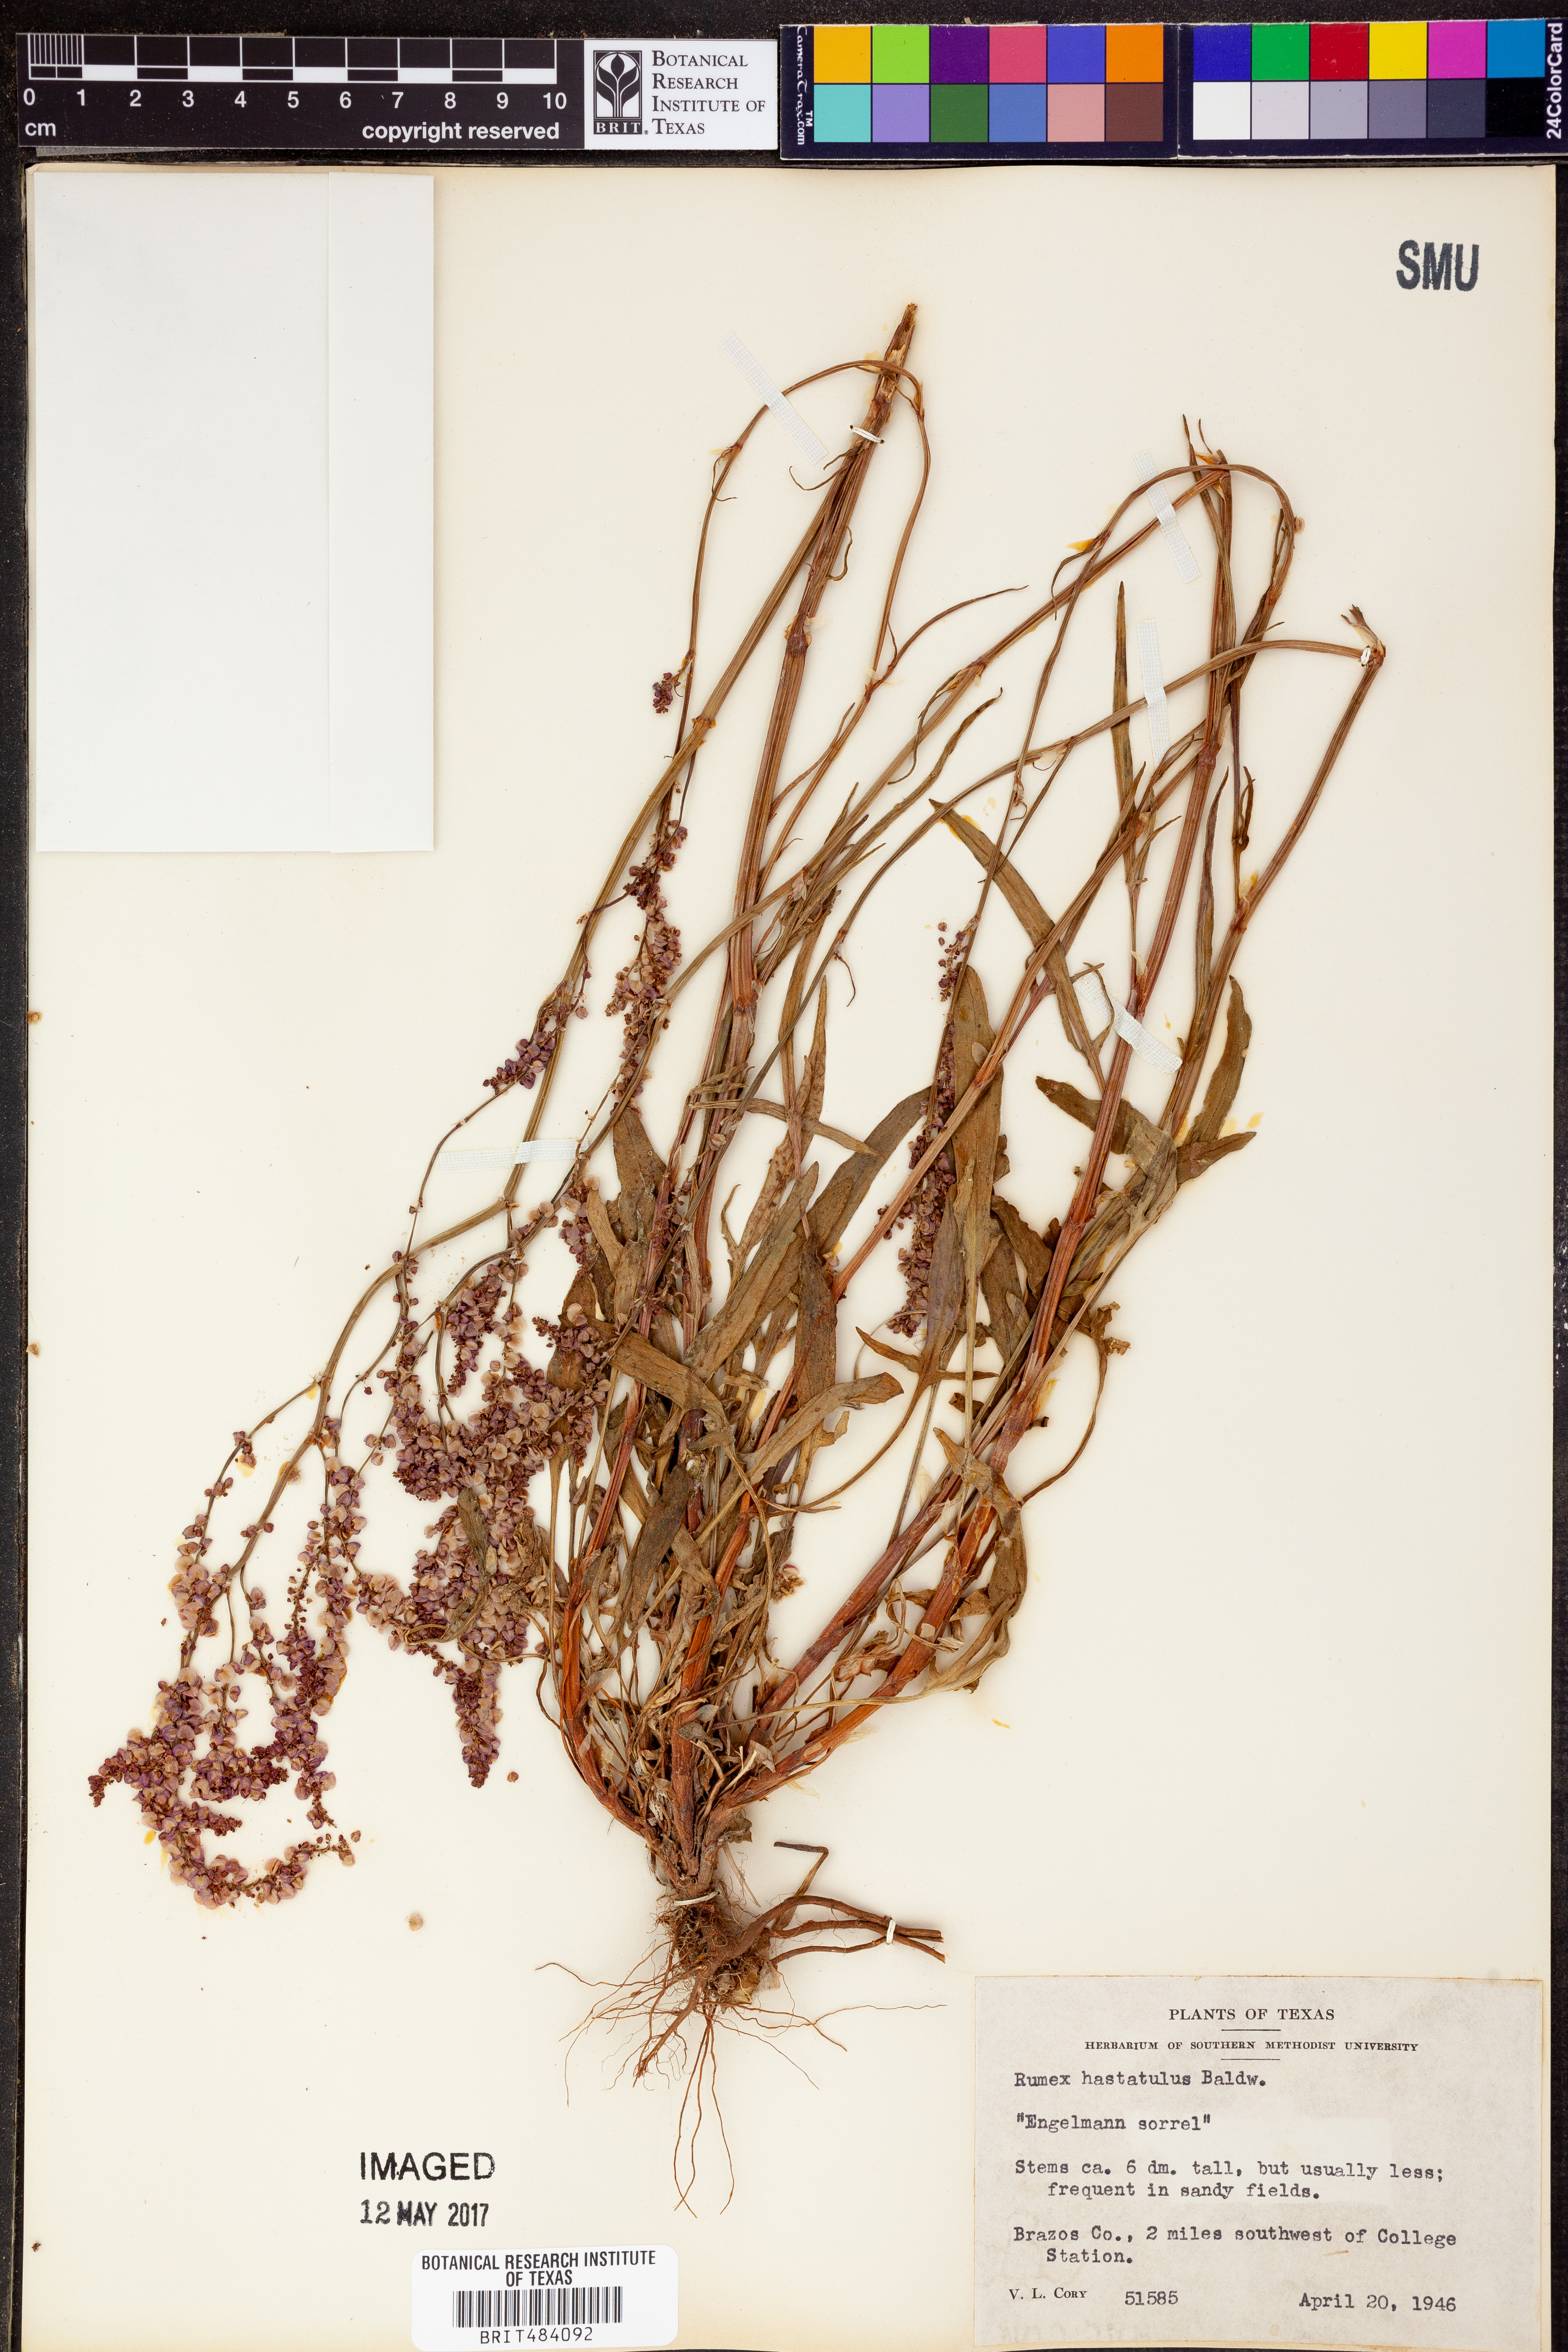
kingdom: Plantae
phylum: Tracheophyta
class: Magnoliopsida
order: Caryophyllales
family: Polygonaceae
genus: Rumex
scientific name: Rumex hastatulus
